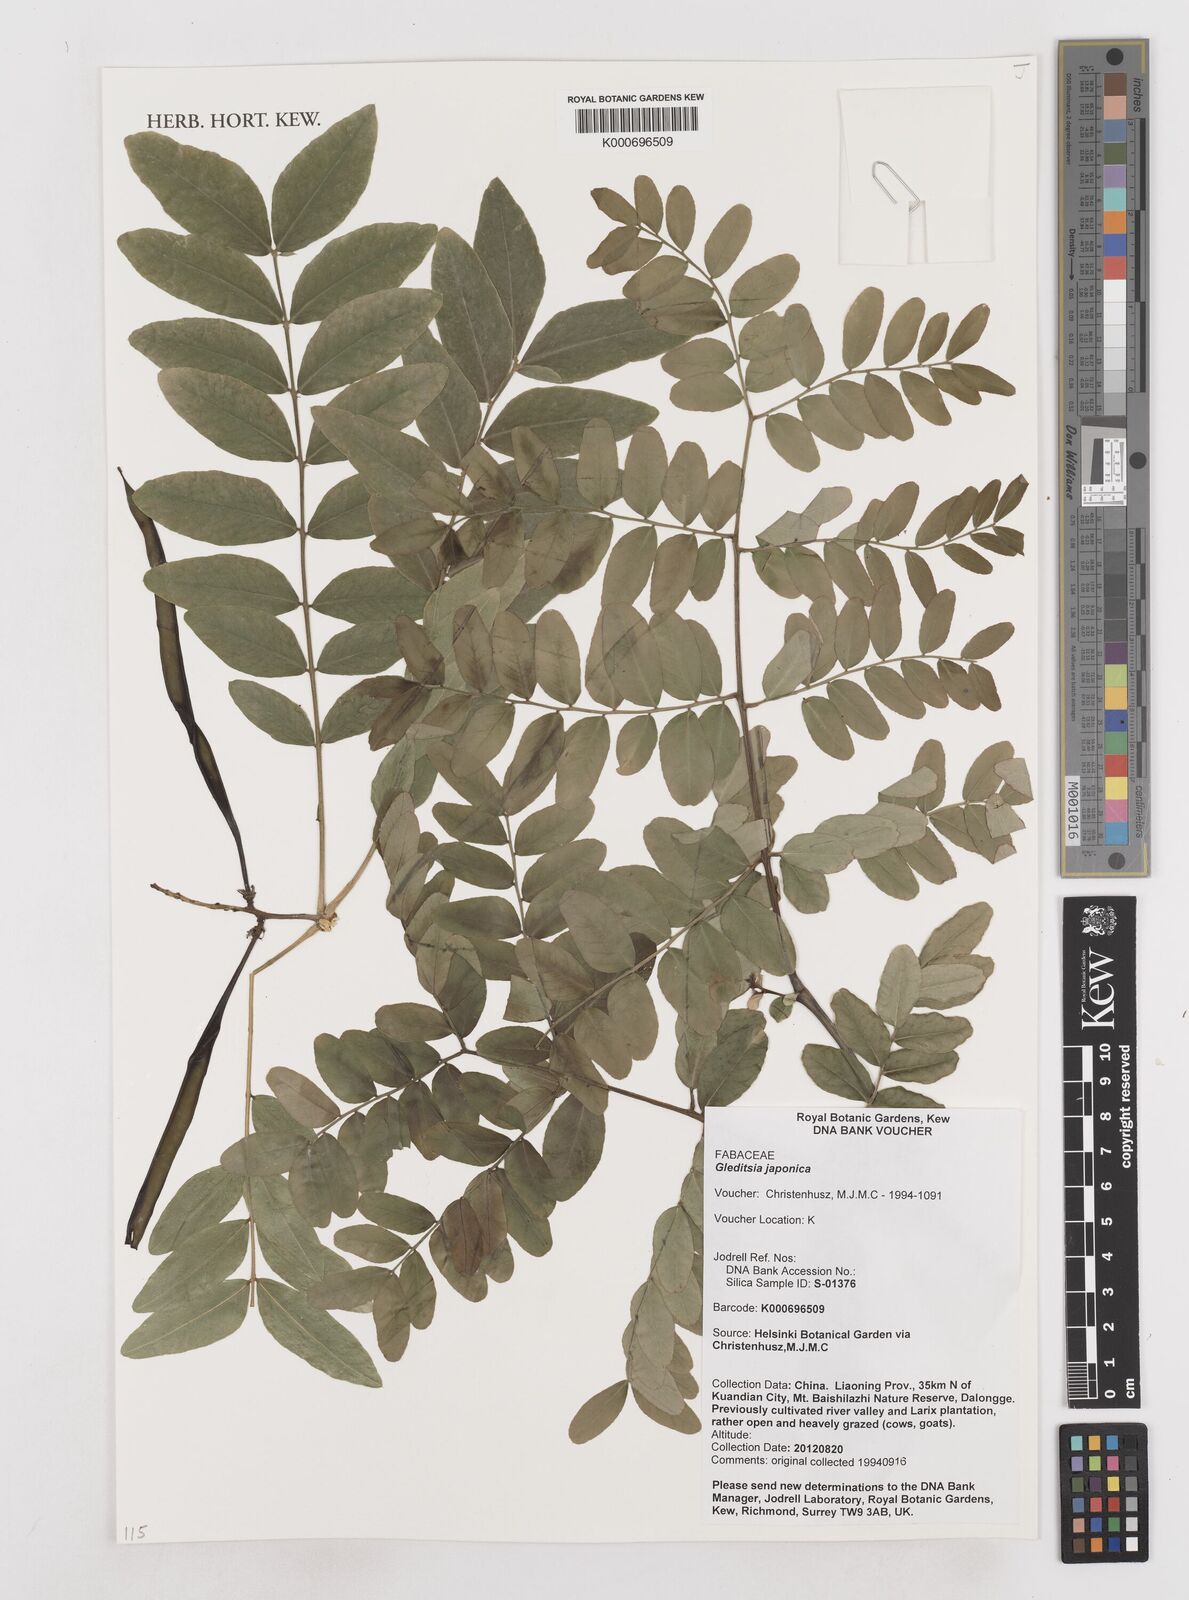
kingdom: Plantae
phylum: Tracheophyta
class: Magnoliopsida
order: Fabales
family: Fabaceae
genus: Gleditsia
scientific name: Gleditsia japonica
